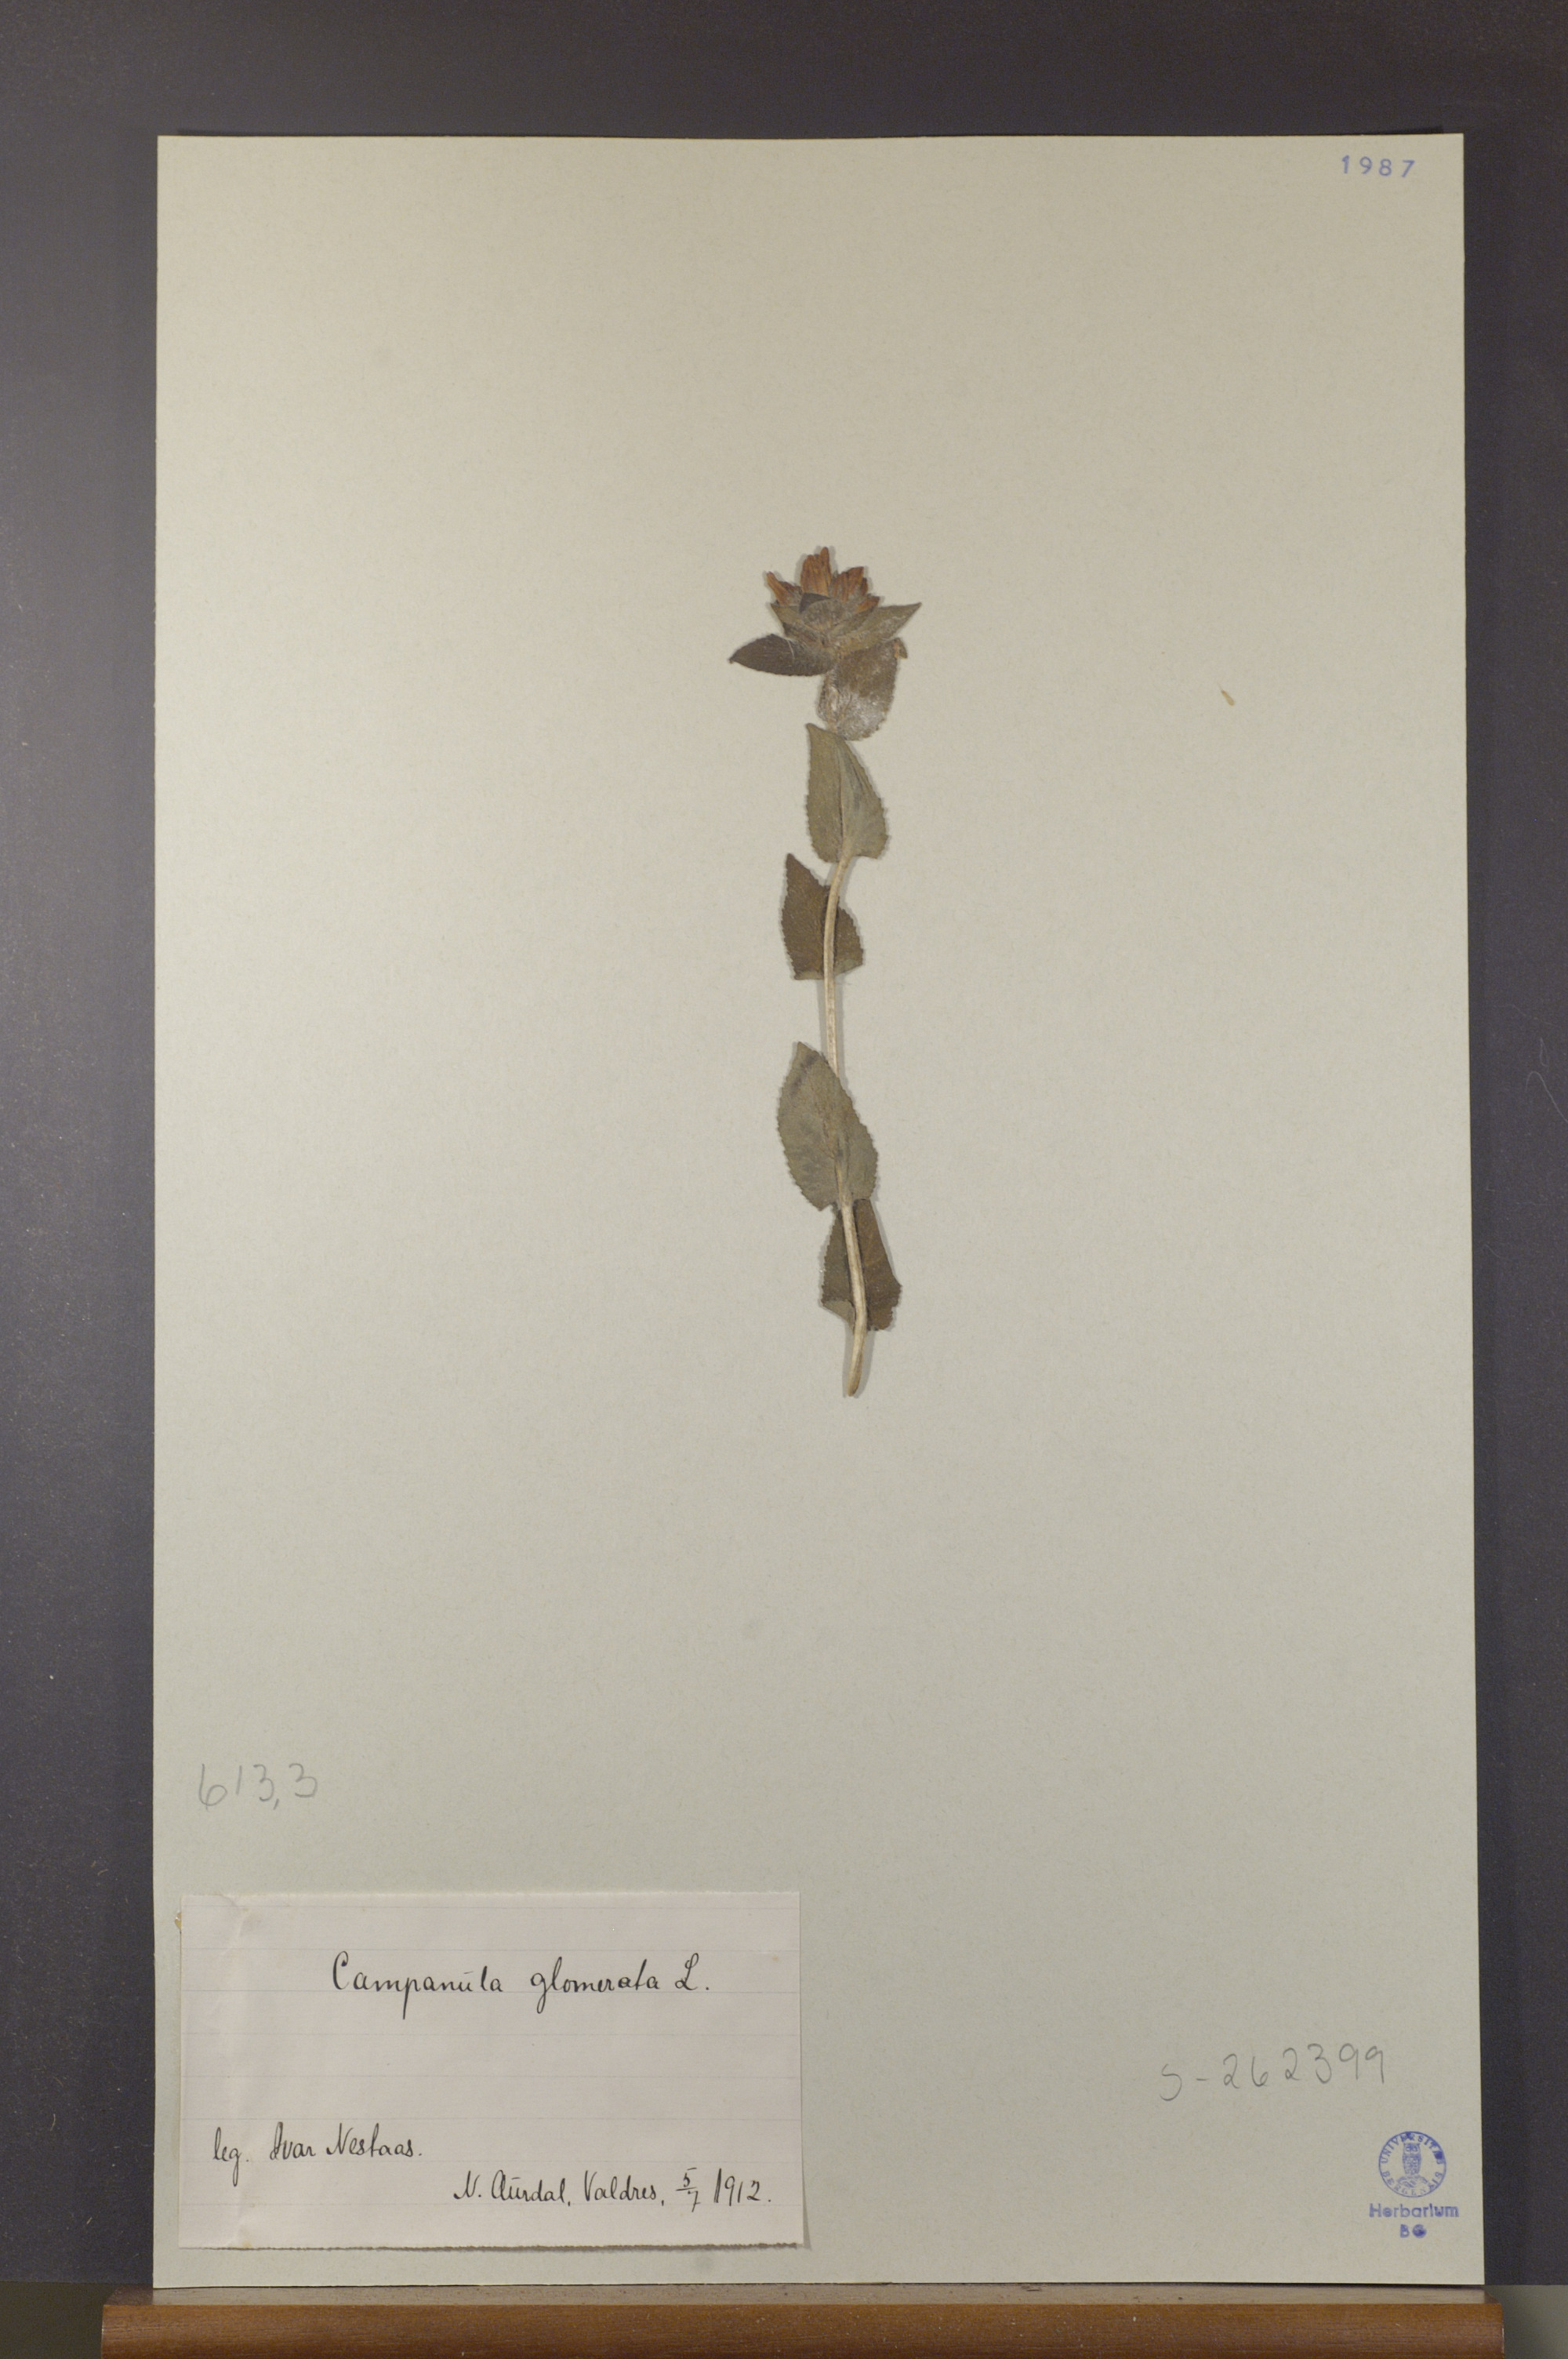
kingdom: Plantae
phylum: Tracheophyta
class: Magnoliopsida
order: Asterales
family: Campanulaceae
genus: Campanula
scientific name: Campanula glomerata
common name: Clustered bellflower
